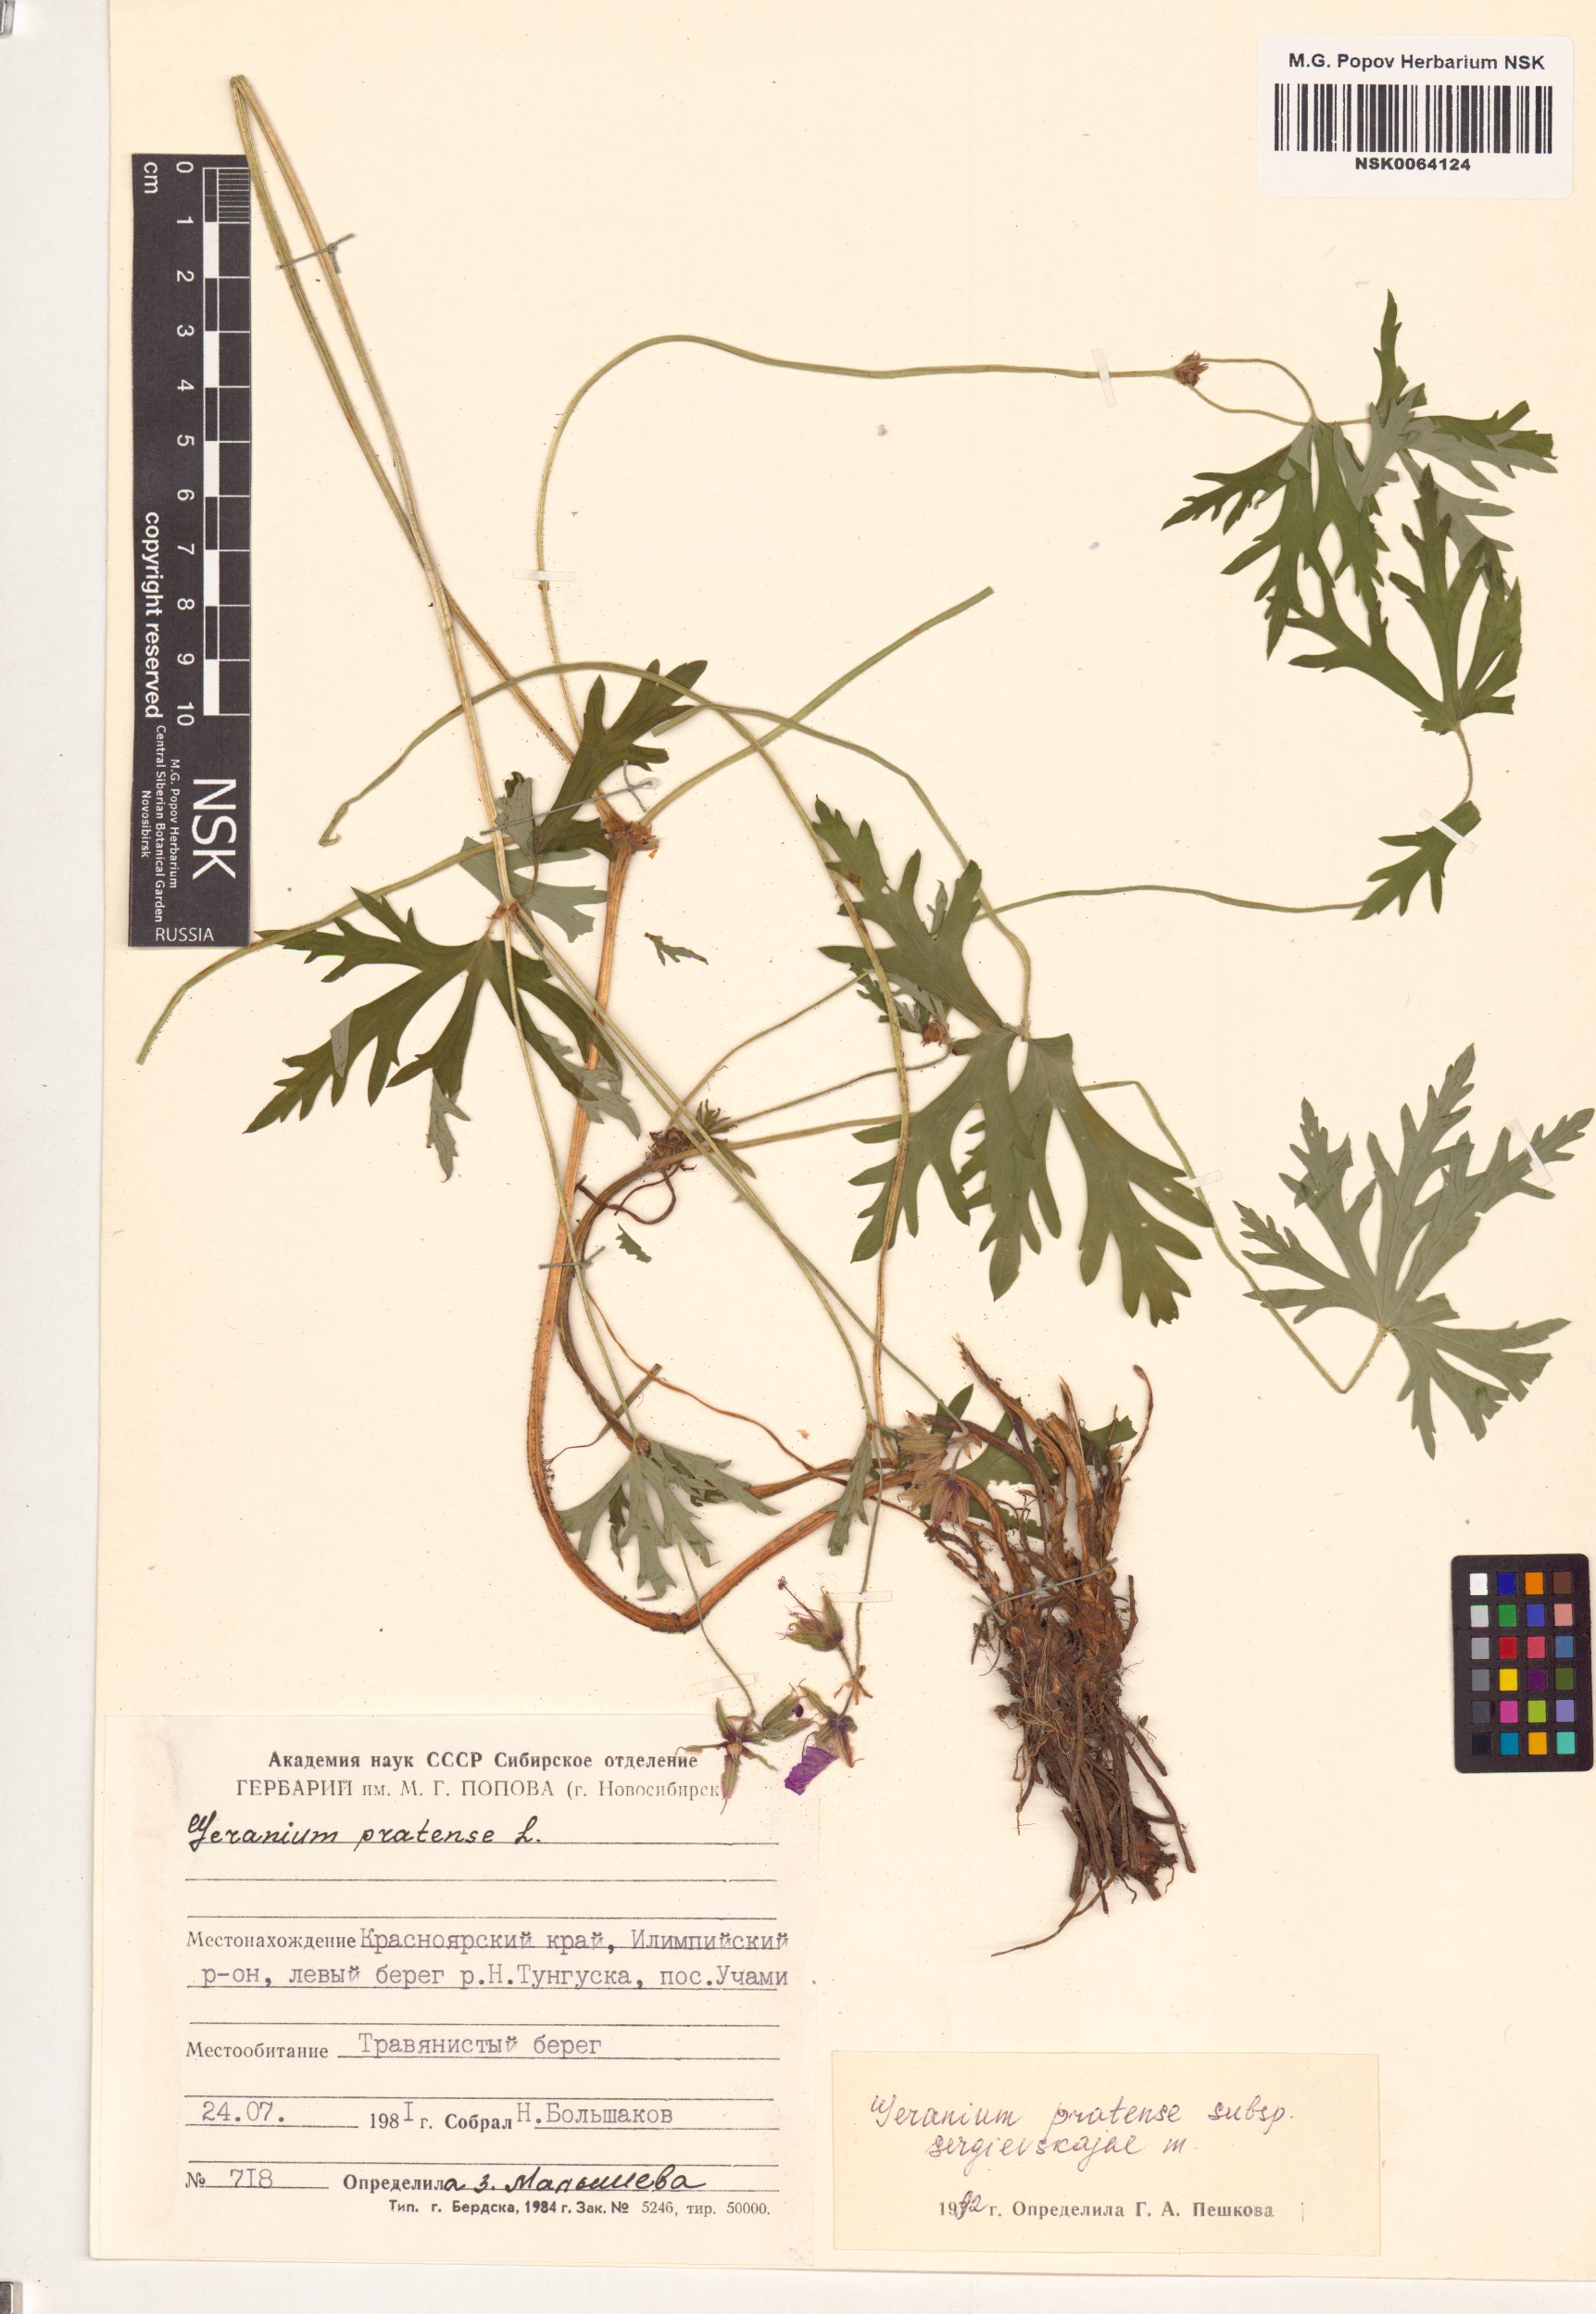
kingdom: Plantae
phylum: Tracheophyta
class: Magnoliopsida
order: Geraniales
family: Geraniaceae
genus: Geranium
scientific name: Geranium pratense
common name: Meadow crane's-bill
